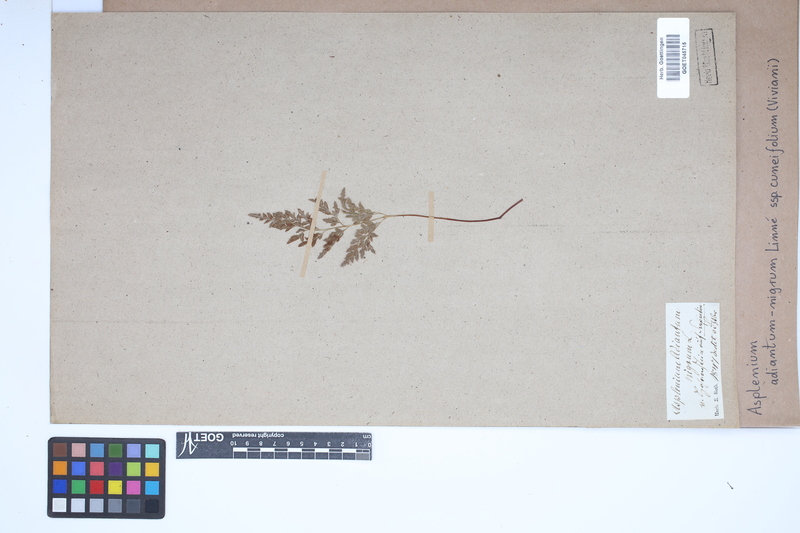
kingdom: Plantae
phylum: Tracheophyta
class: Polypodiopsida
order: Polypodiales
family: Aspleniaceae
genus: Asplenium
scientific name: Asplenium cuneifolium
